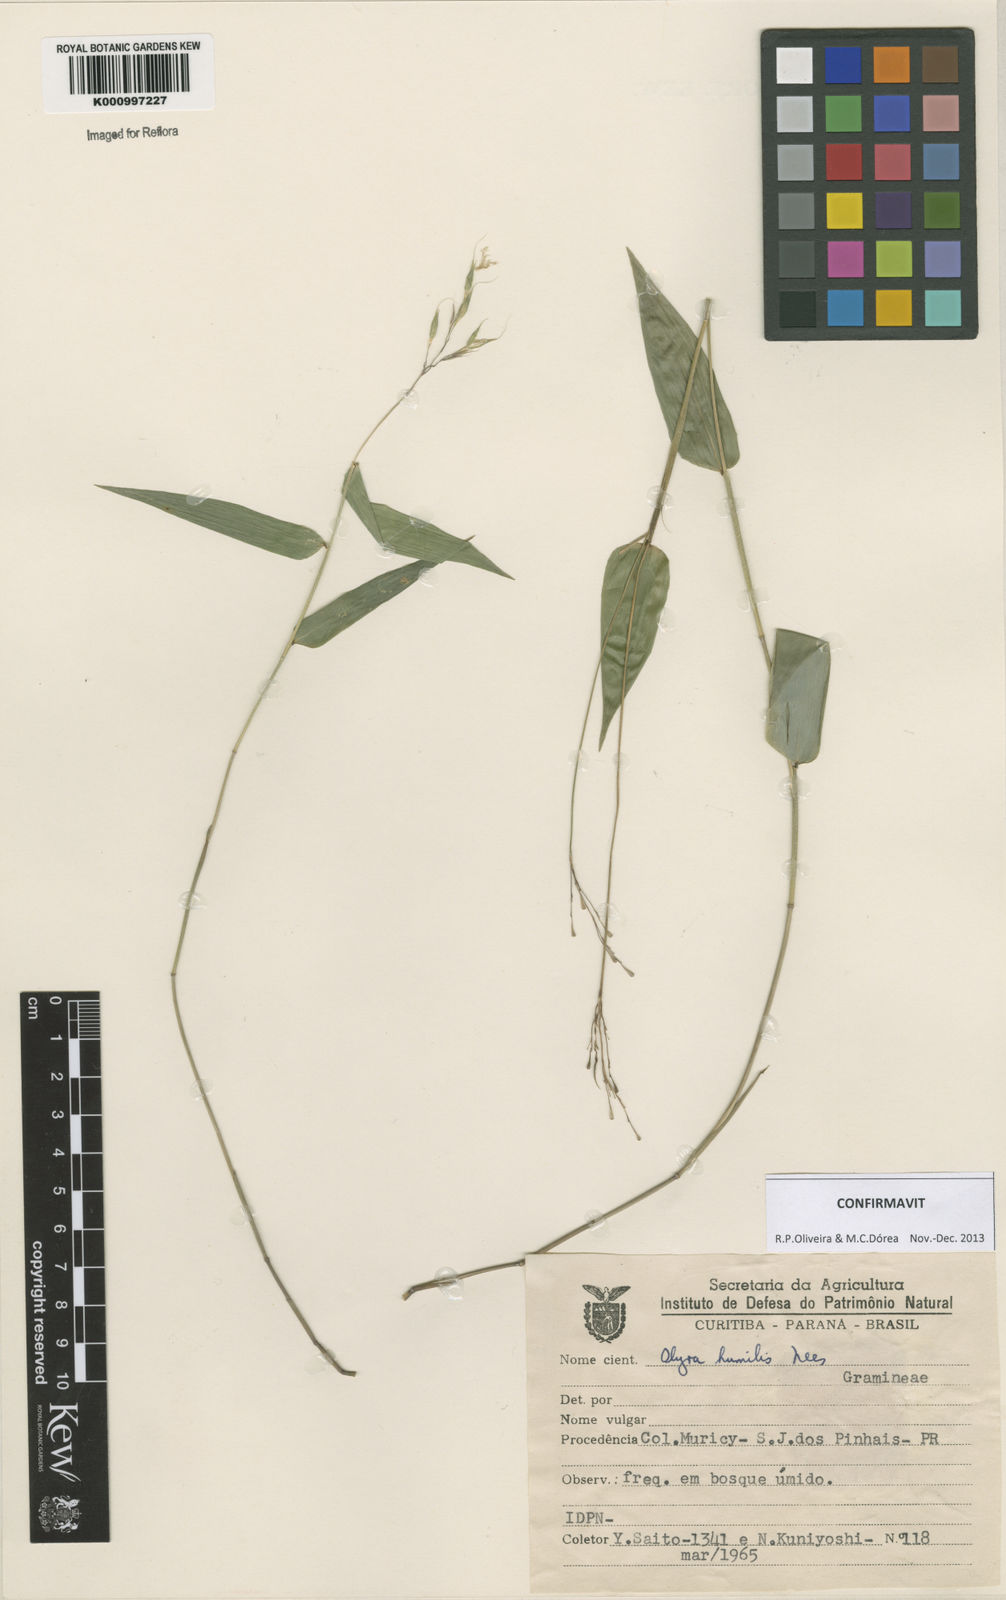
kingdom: Plantae
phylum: Tracheophyta
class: Liliopsida
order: Poales
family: Poaceae
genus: Olyra
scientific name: Olyra humilis
